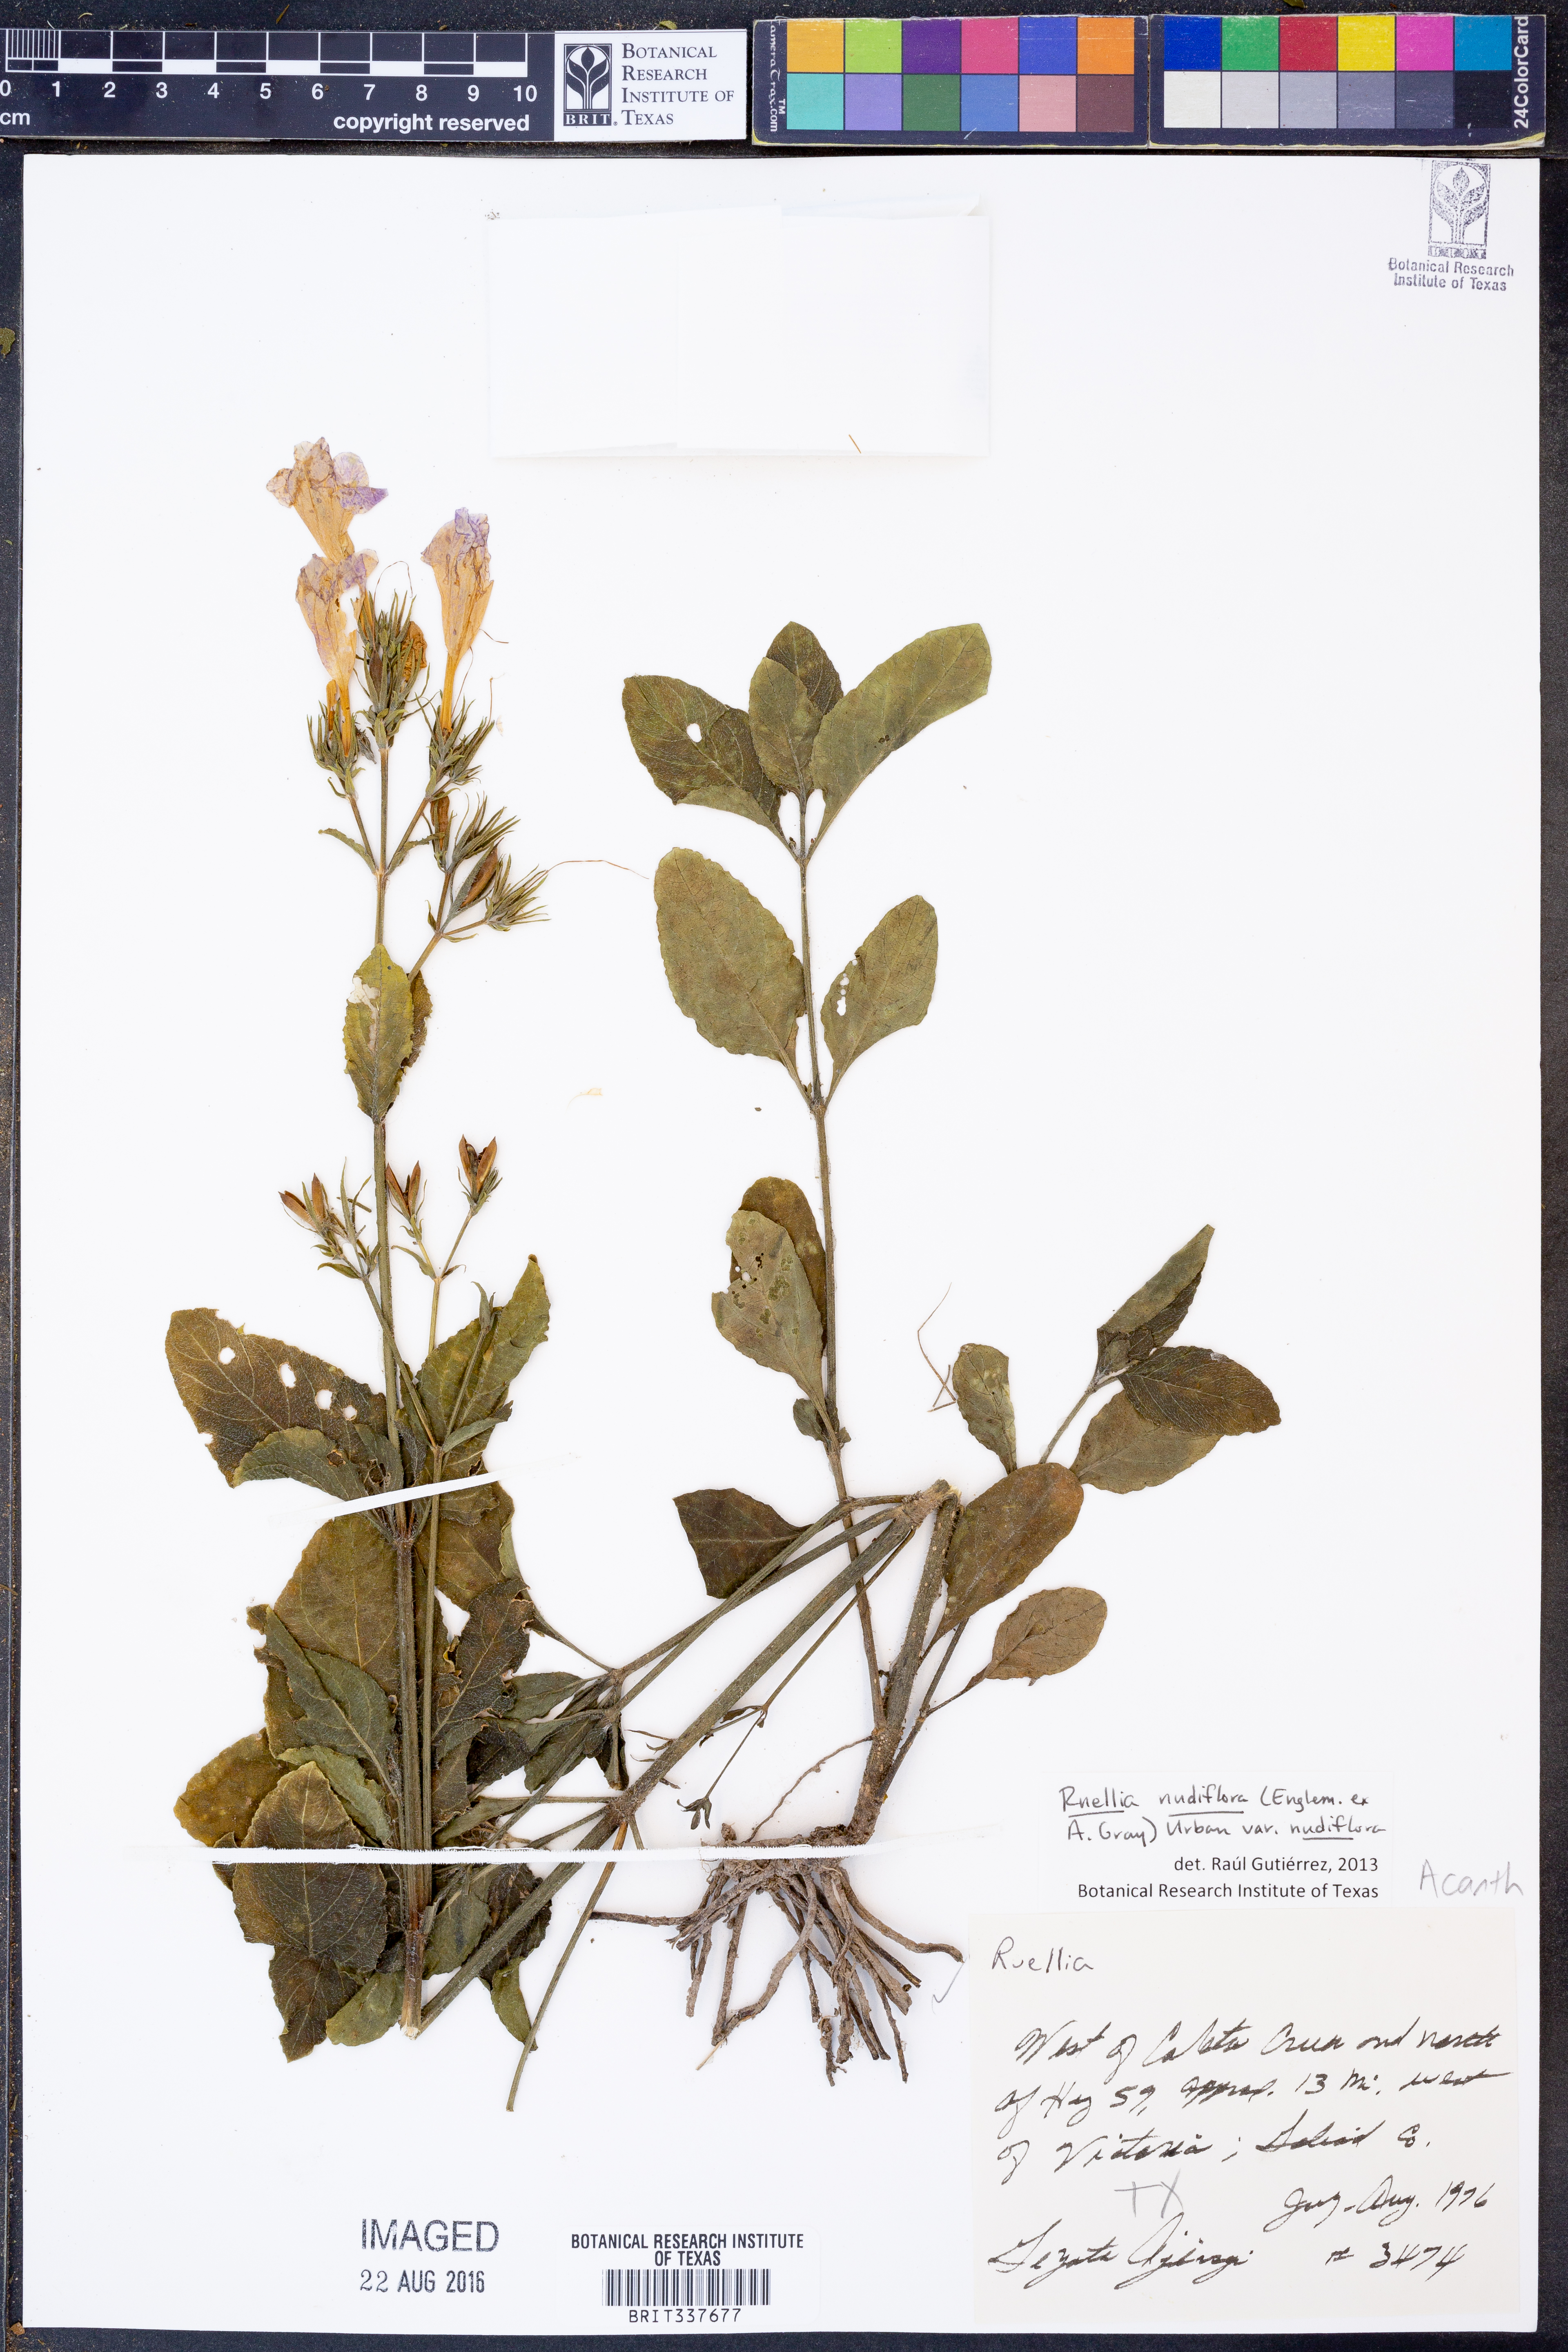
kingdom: Plantae
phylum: Tracheophyta
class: Magnoliopsida
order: Lamiales
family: Acanthaceae
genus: Ruellia
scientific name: Ruellia ciliatiflora
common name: Hairyflower wild petunia
